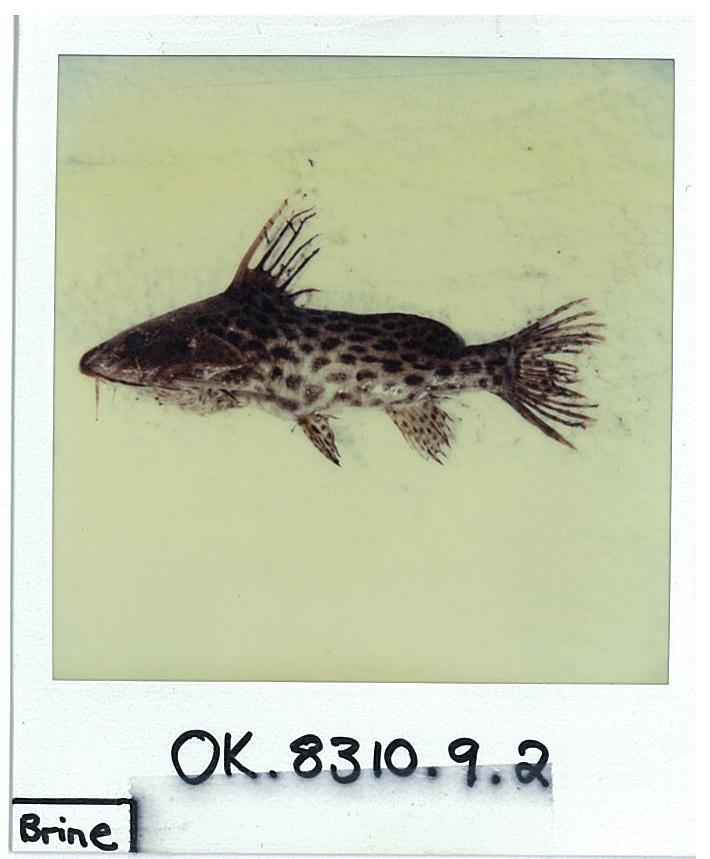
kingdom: Animalia
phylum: Chordata
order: Siluriformes
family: Mochokidae
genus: Synodontis
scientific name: Synodontis macrostigma
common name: Largespot squeaker
